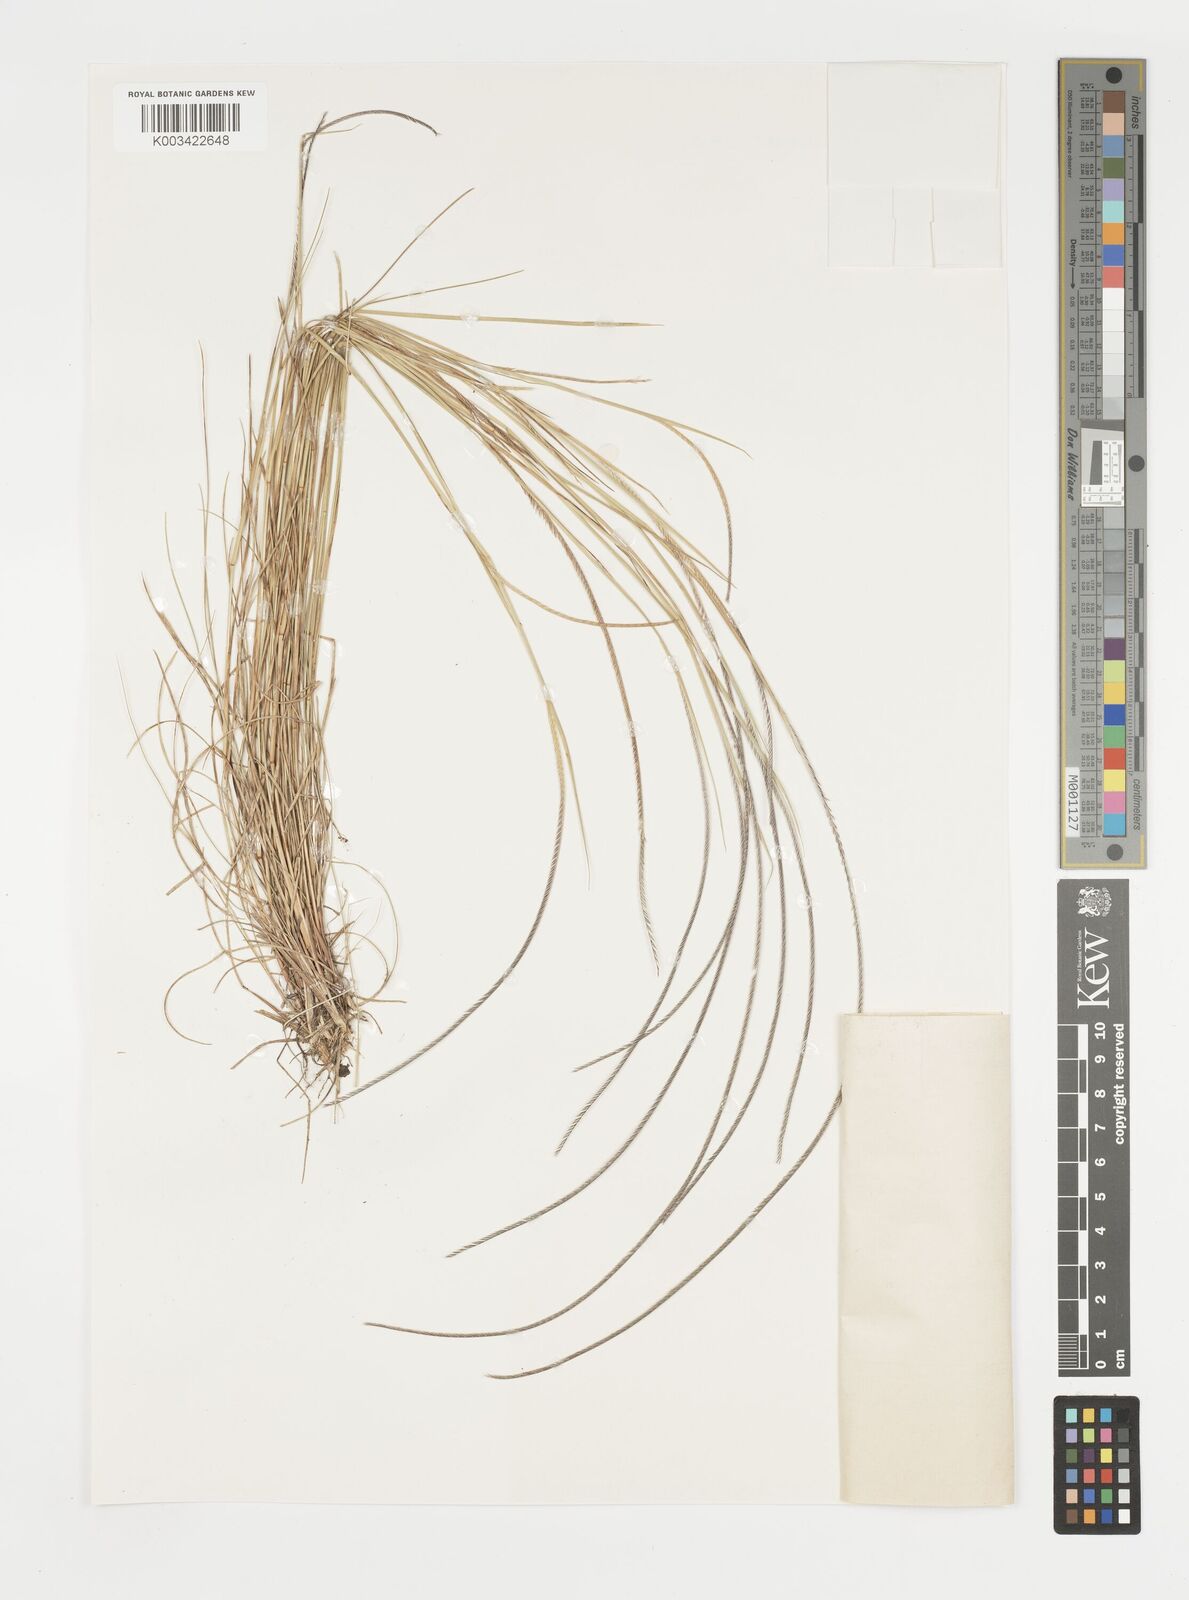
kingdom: Plantae
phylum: Tracheophyta
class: Liliopsida
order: Poales
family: Poaceae
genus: Microchloa
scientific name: Microchloa kunthii
